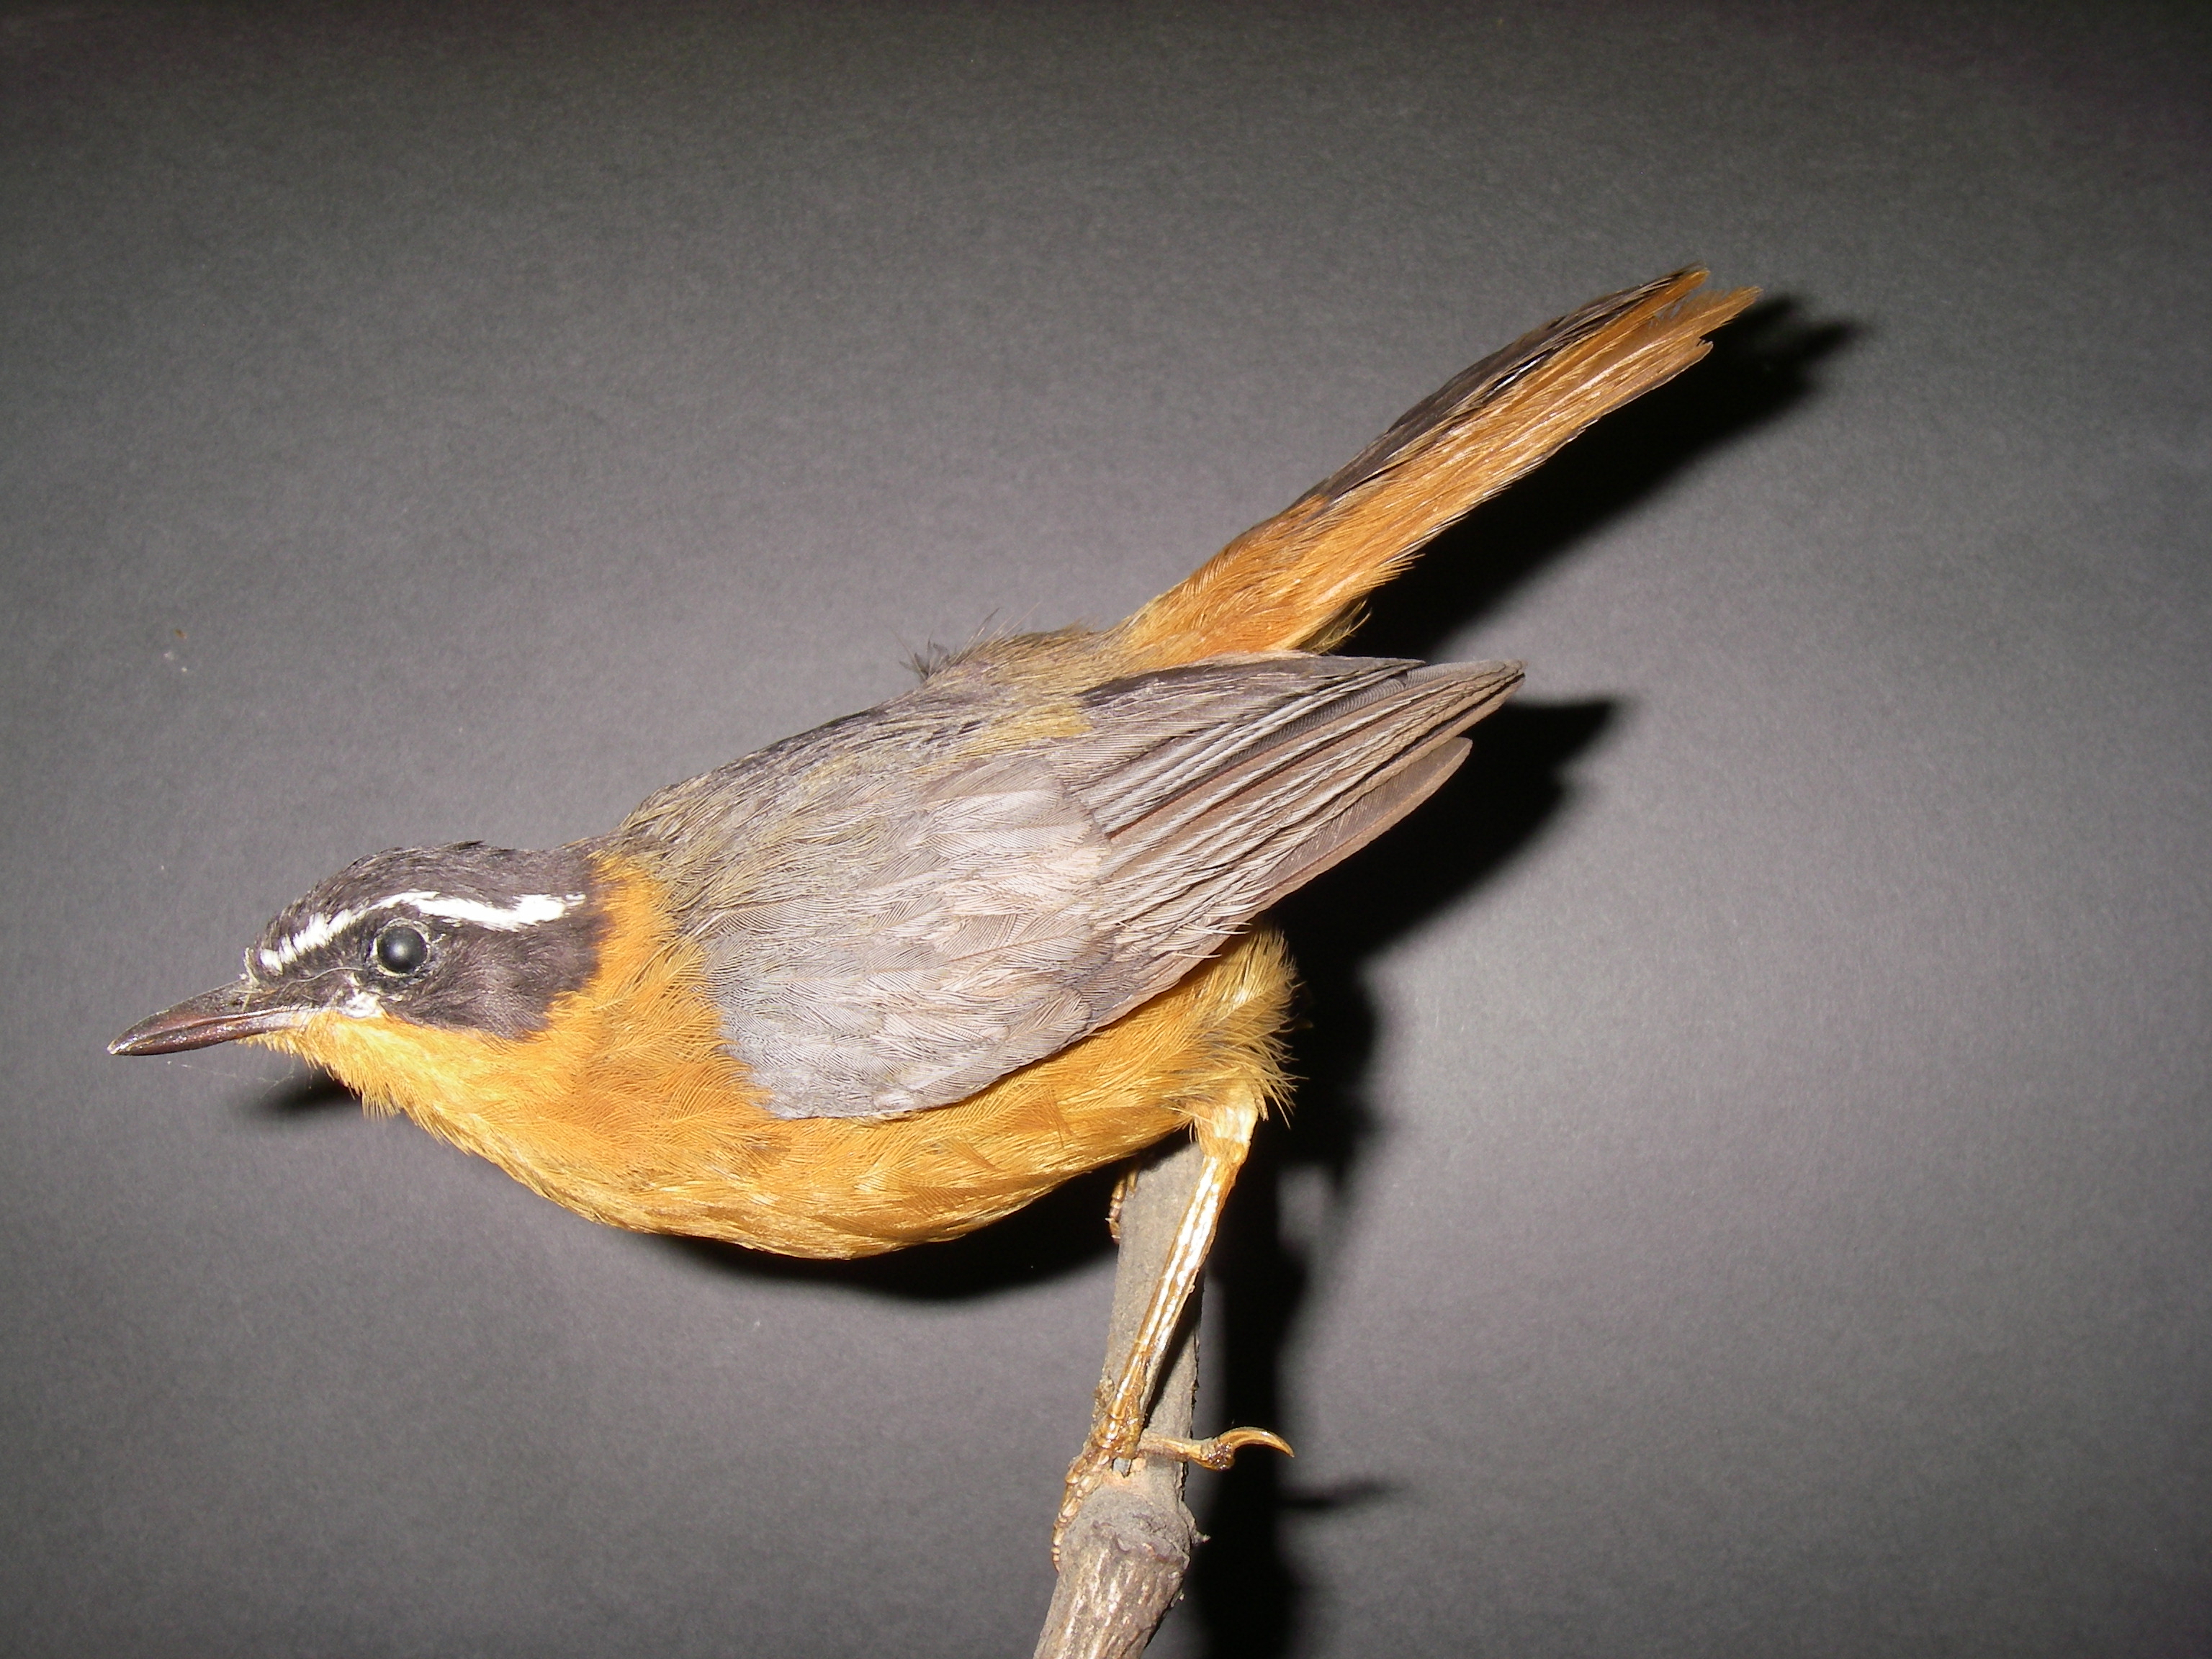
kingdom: Animalia
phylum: Chordata
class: Aves
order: Passeriformes
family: Muscicapidae
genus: Cossypha
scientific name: Cossypha semirufa
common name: Rüppell's robin-chat
